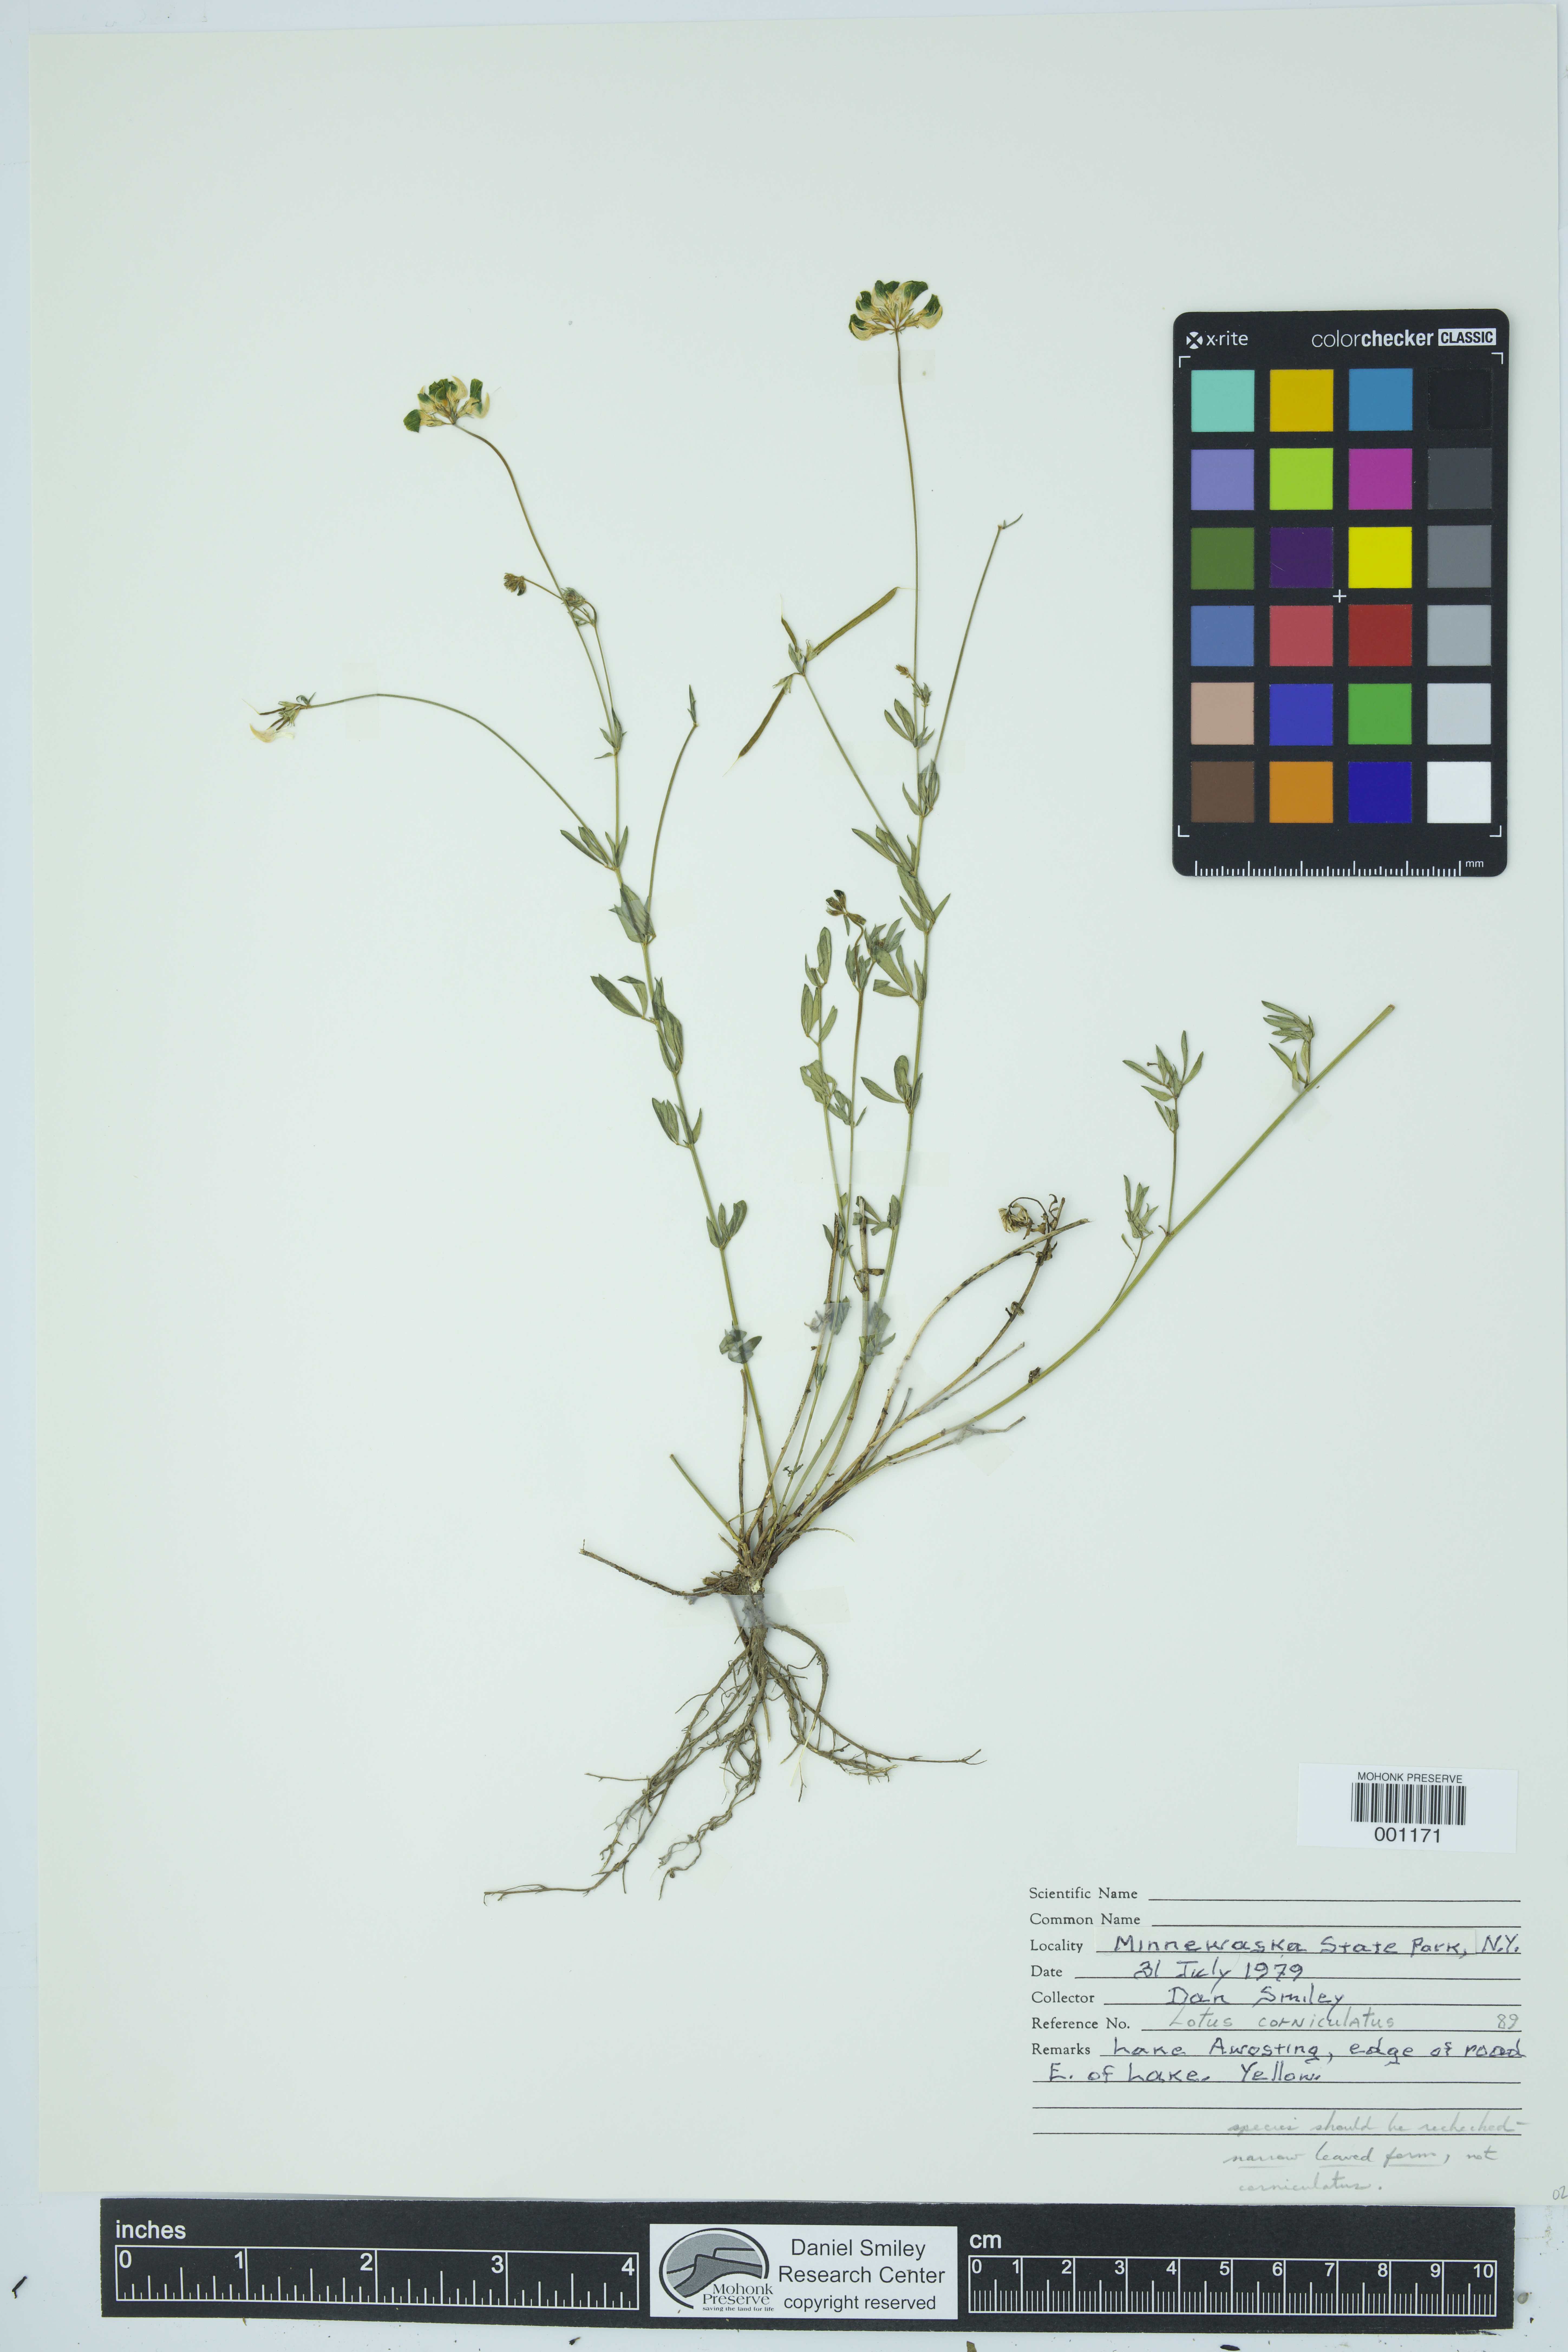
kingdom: Plantae
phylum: Tracheophyta
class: Magnoliopsida
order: Fabales
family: Fabaceae
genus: Lotus
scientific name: Lotus corniculatus
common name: Common bird's-foot-trefoil
